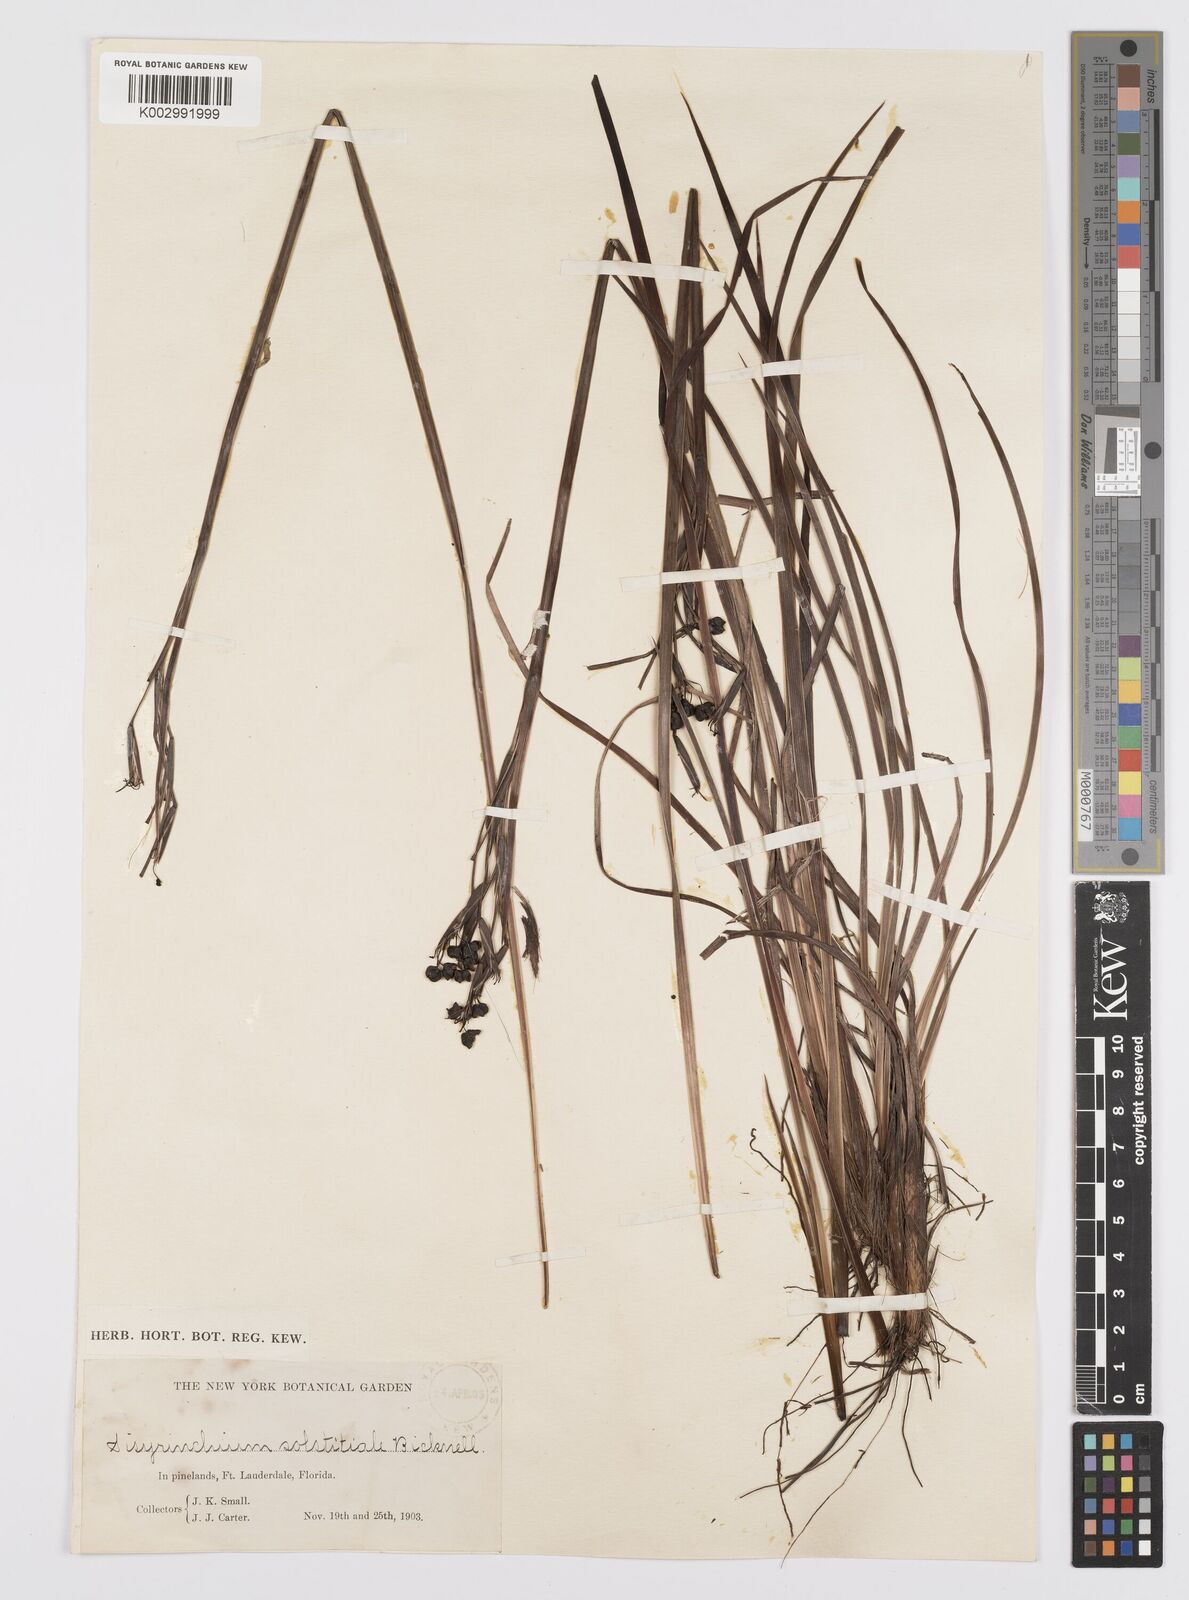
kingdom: Plantae
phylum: Tracheophyta
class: Liliopsida
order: Asparagales
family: Iridaceae
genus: Sisyrinchium
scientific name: Sisyrinchium xerophyllum
